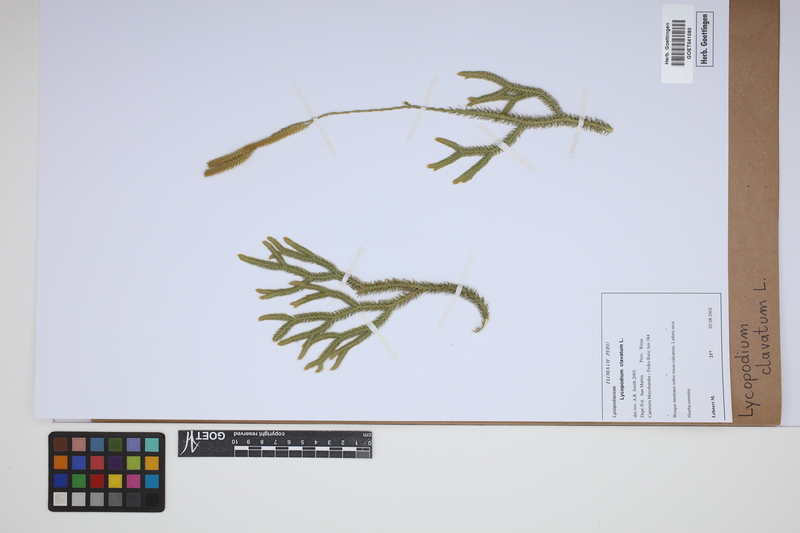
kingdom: Plantae
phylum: Tracheophyta
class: Lycopodiopsida
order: Lycopodiales
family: Lycopodiaceae
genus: Lycopodium
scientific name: Lycopodium clavatum
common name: Stag's-horn clubmoss
